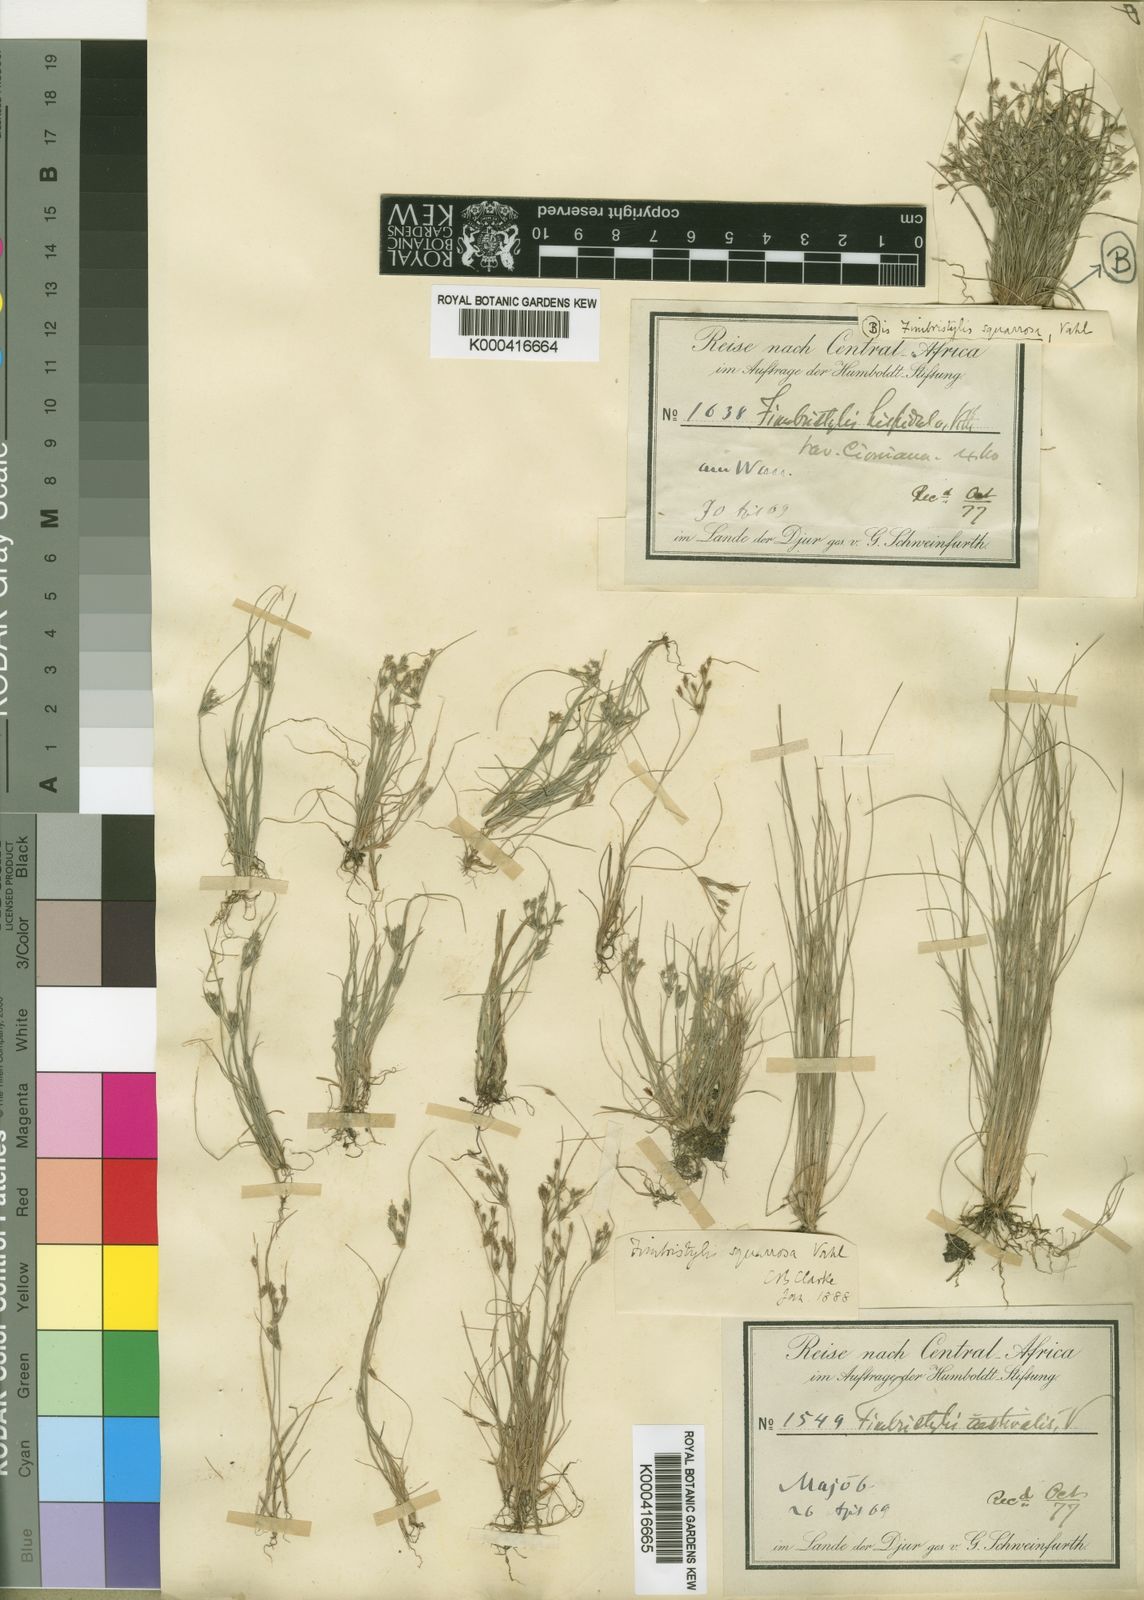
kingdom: Plantae
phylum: Tracheophyta
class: Liliopsida
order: Poales
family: Cyperaceae
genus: Fimbristylis
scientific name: Fimbristylis squarrosa
